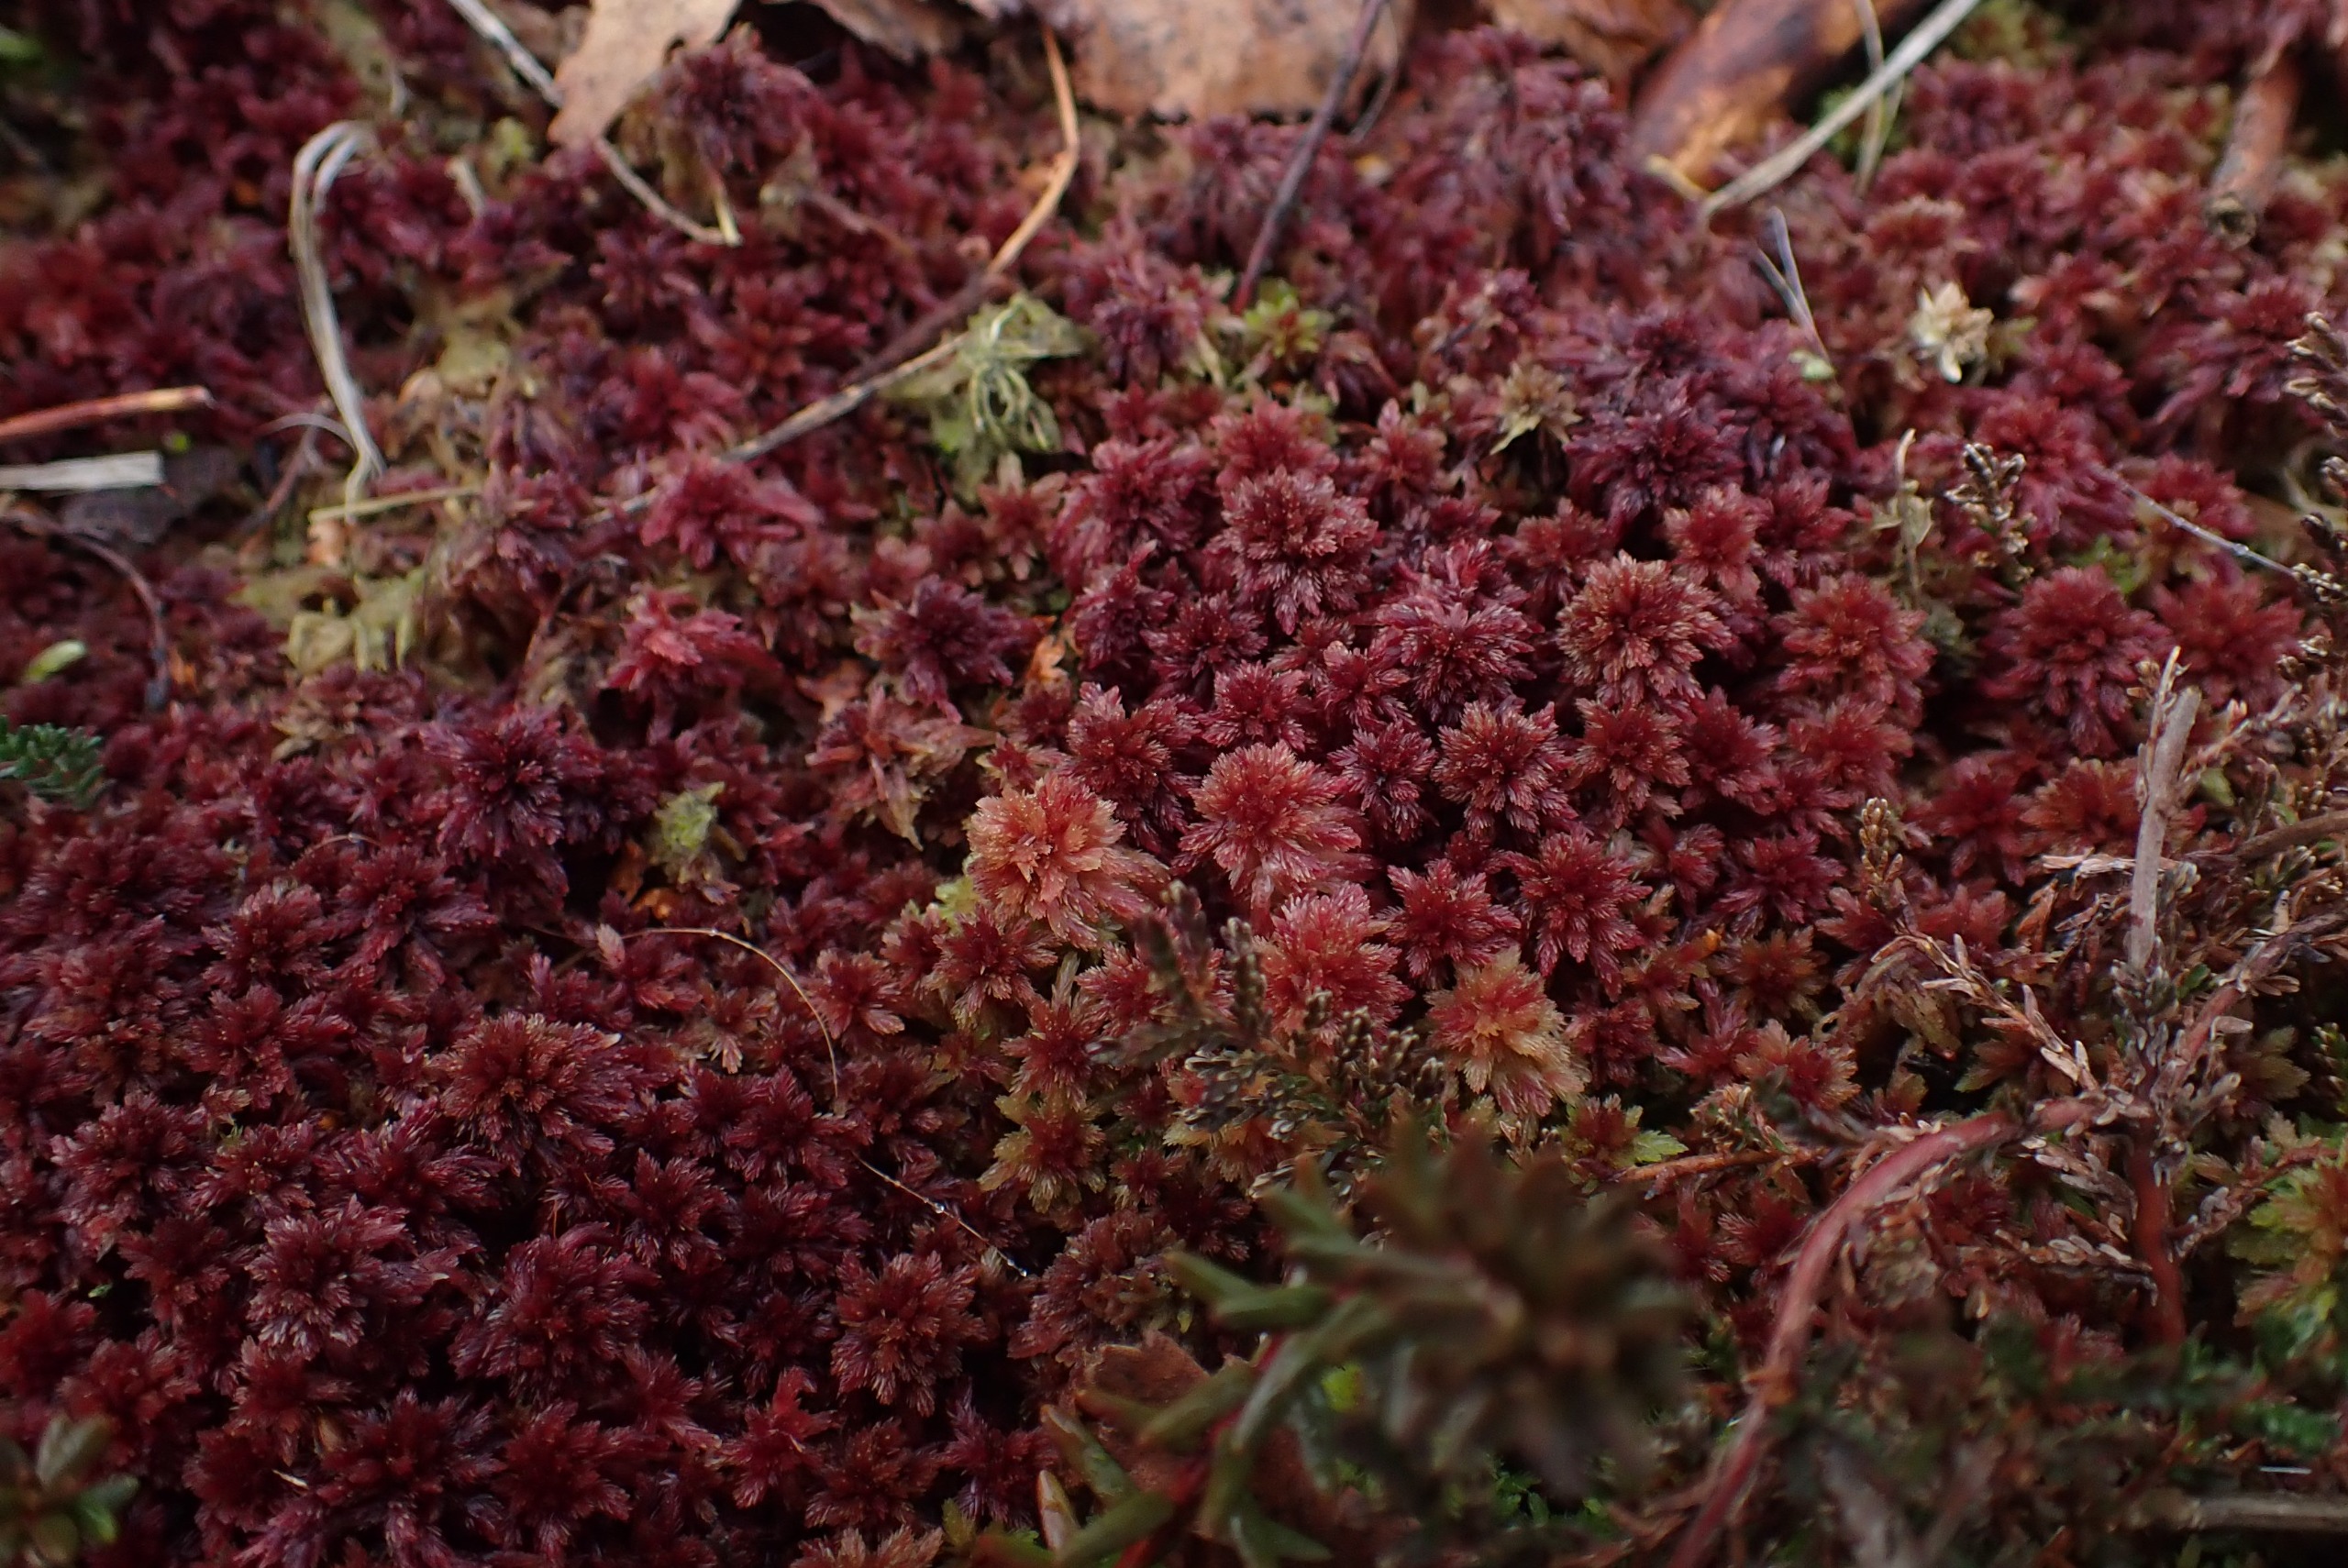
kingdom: Plantae
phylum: Bryophyta
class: Sphagnopsida
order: Sphagnales
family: Sphagnaceae
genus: Sphagnum
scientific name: Sphagnum capillifolium
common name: Plyds-tørvemos
